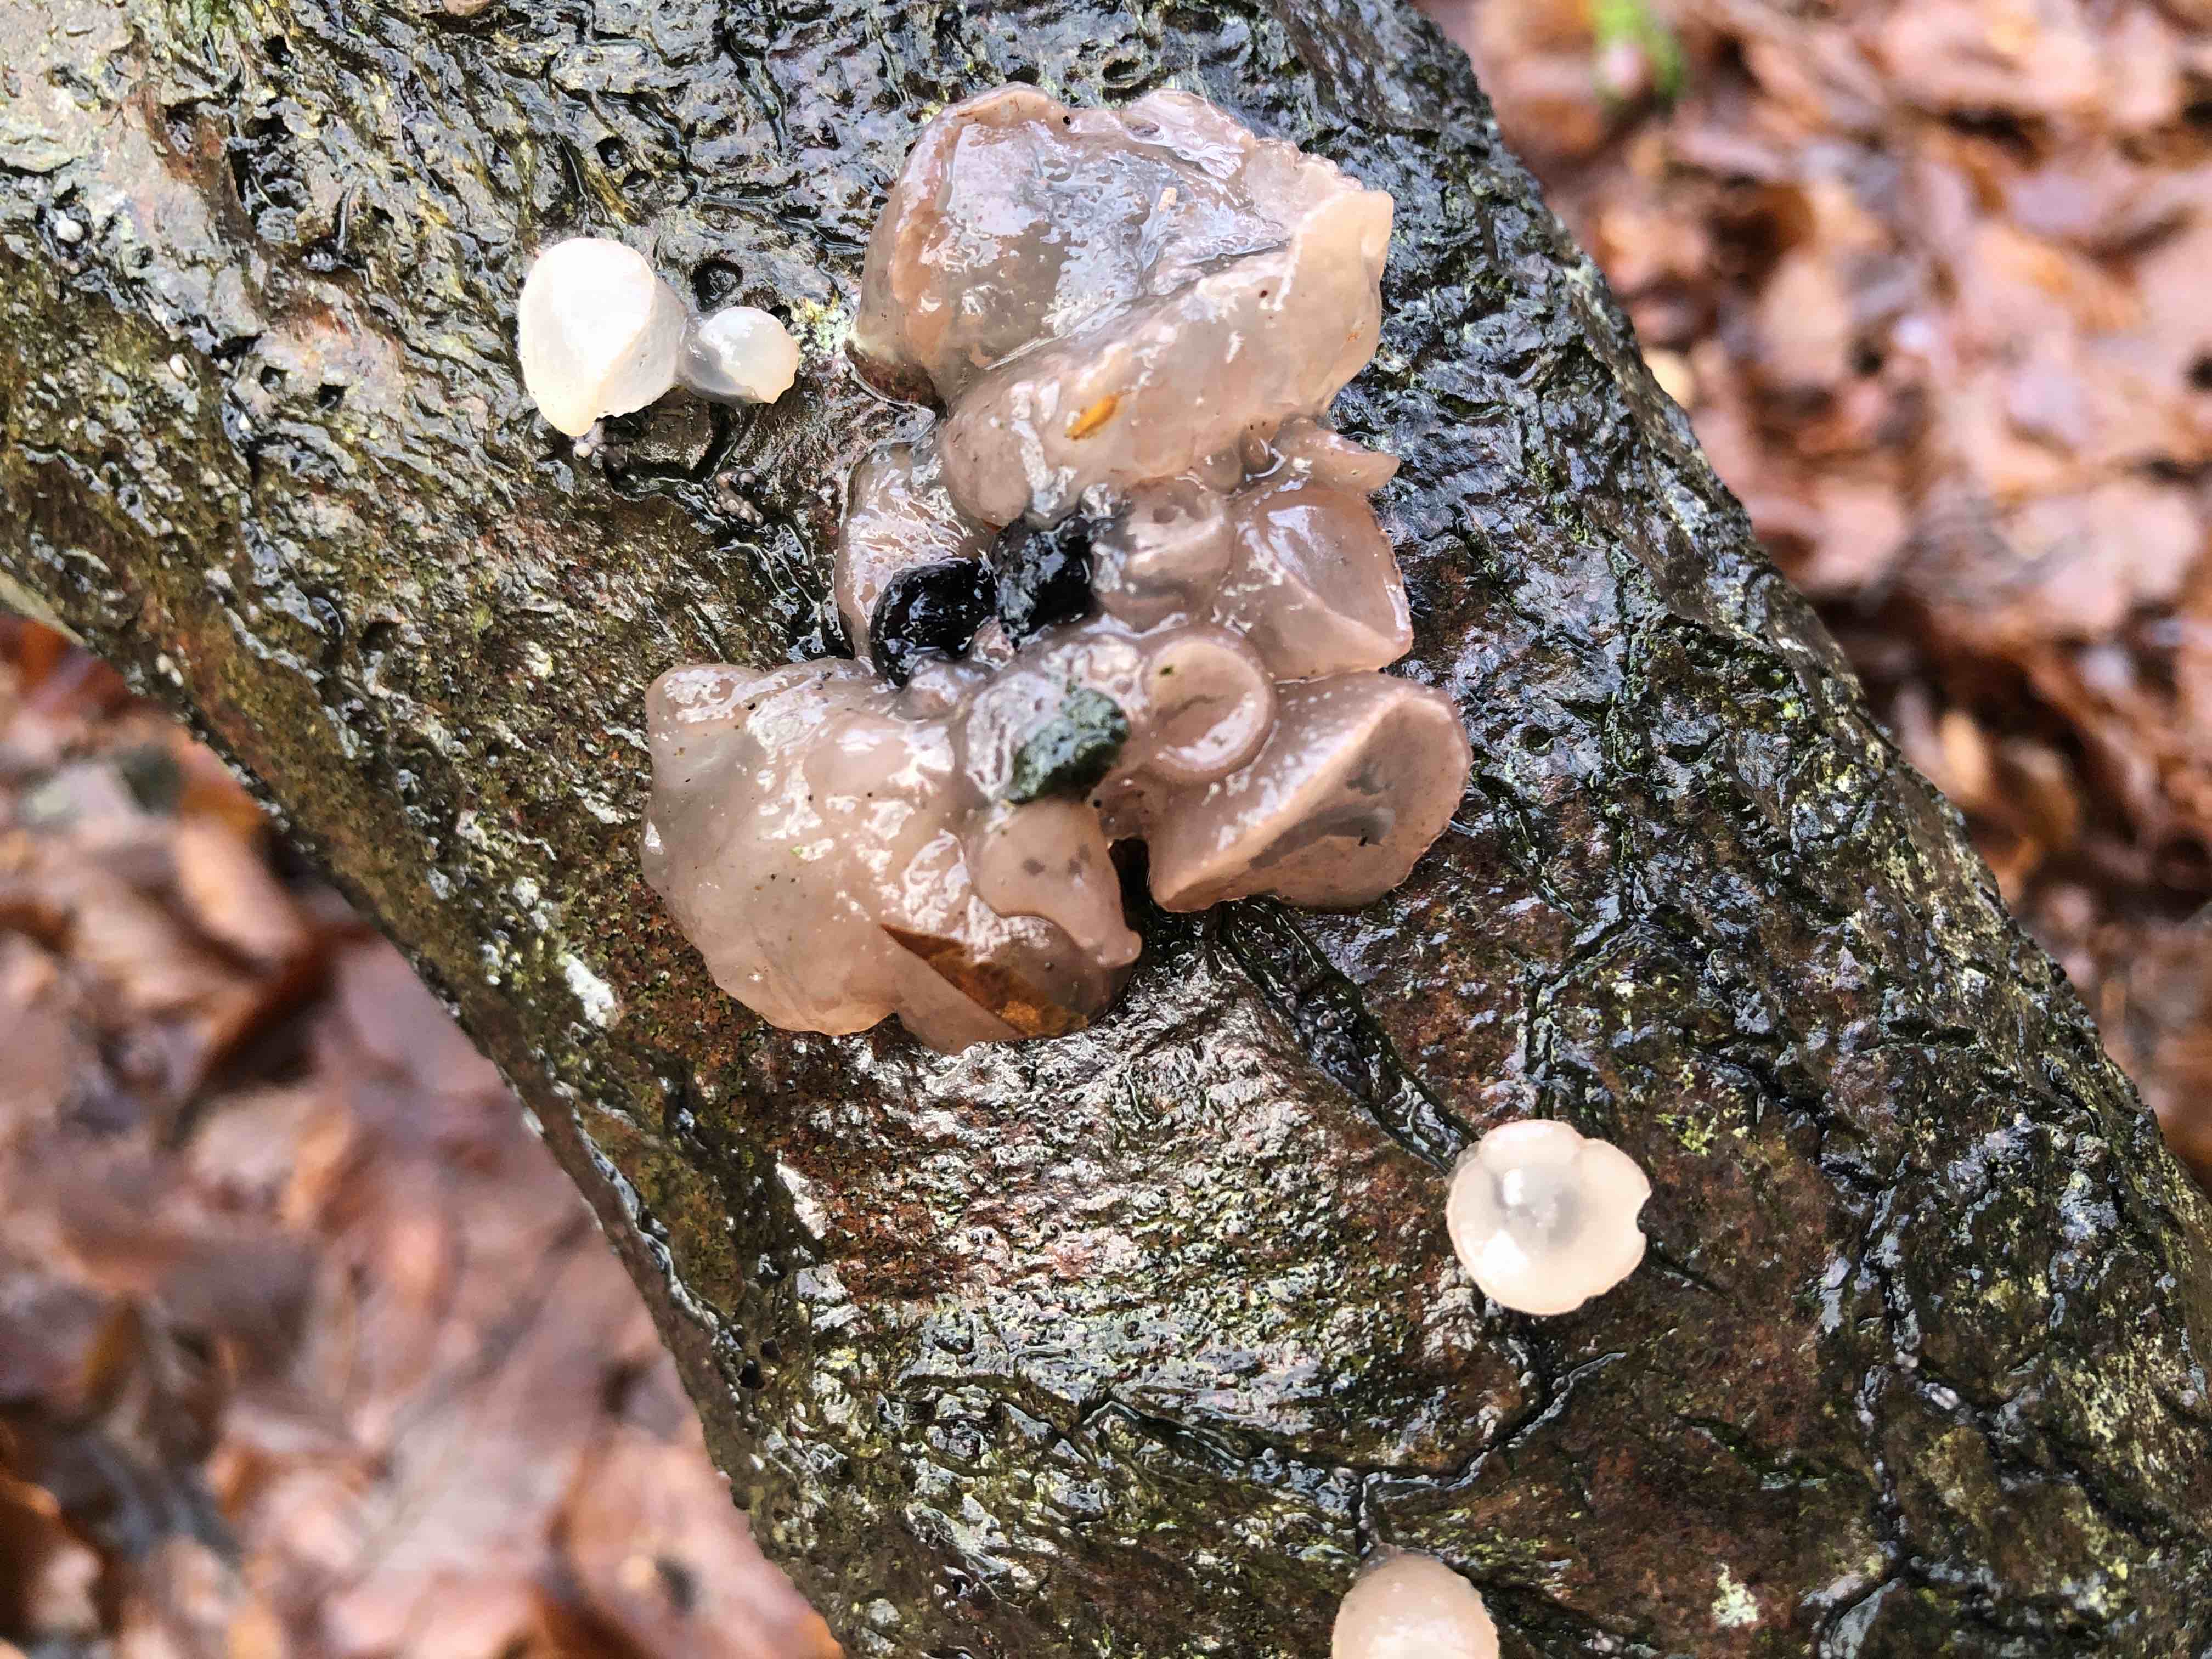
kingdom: Fungi
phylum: Ascomycota
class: Leotiomycetes
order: Helotiales
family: Gelatinodiscaceae
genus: Neobulgaria
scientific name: Neobulgaria pura
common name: bleg bævreskive
